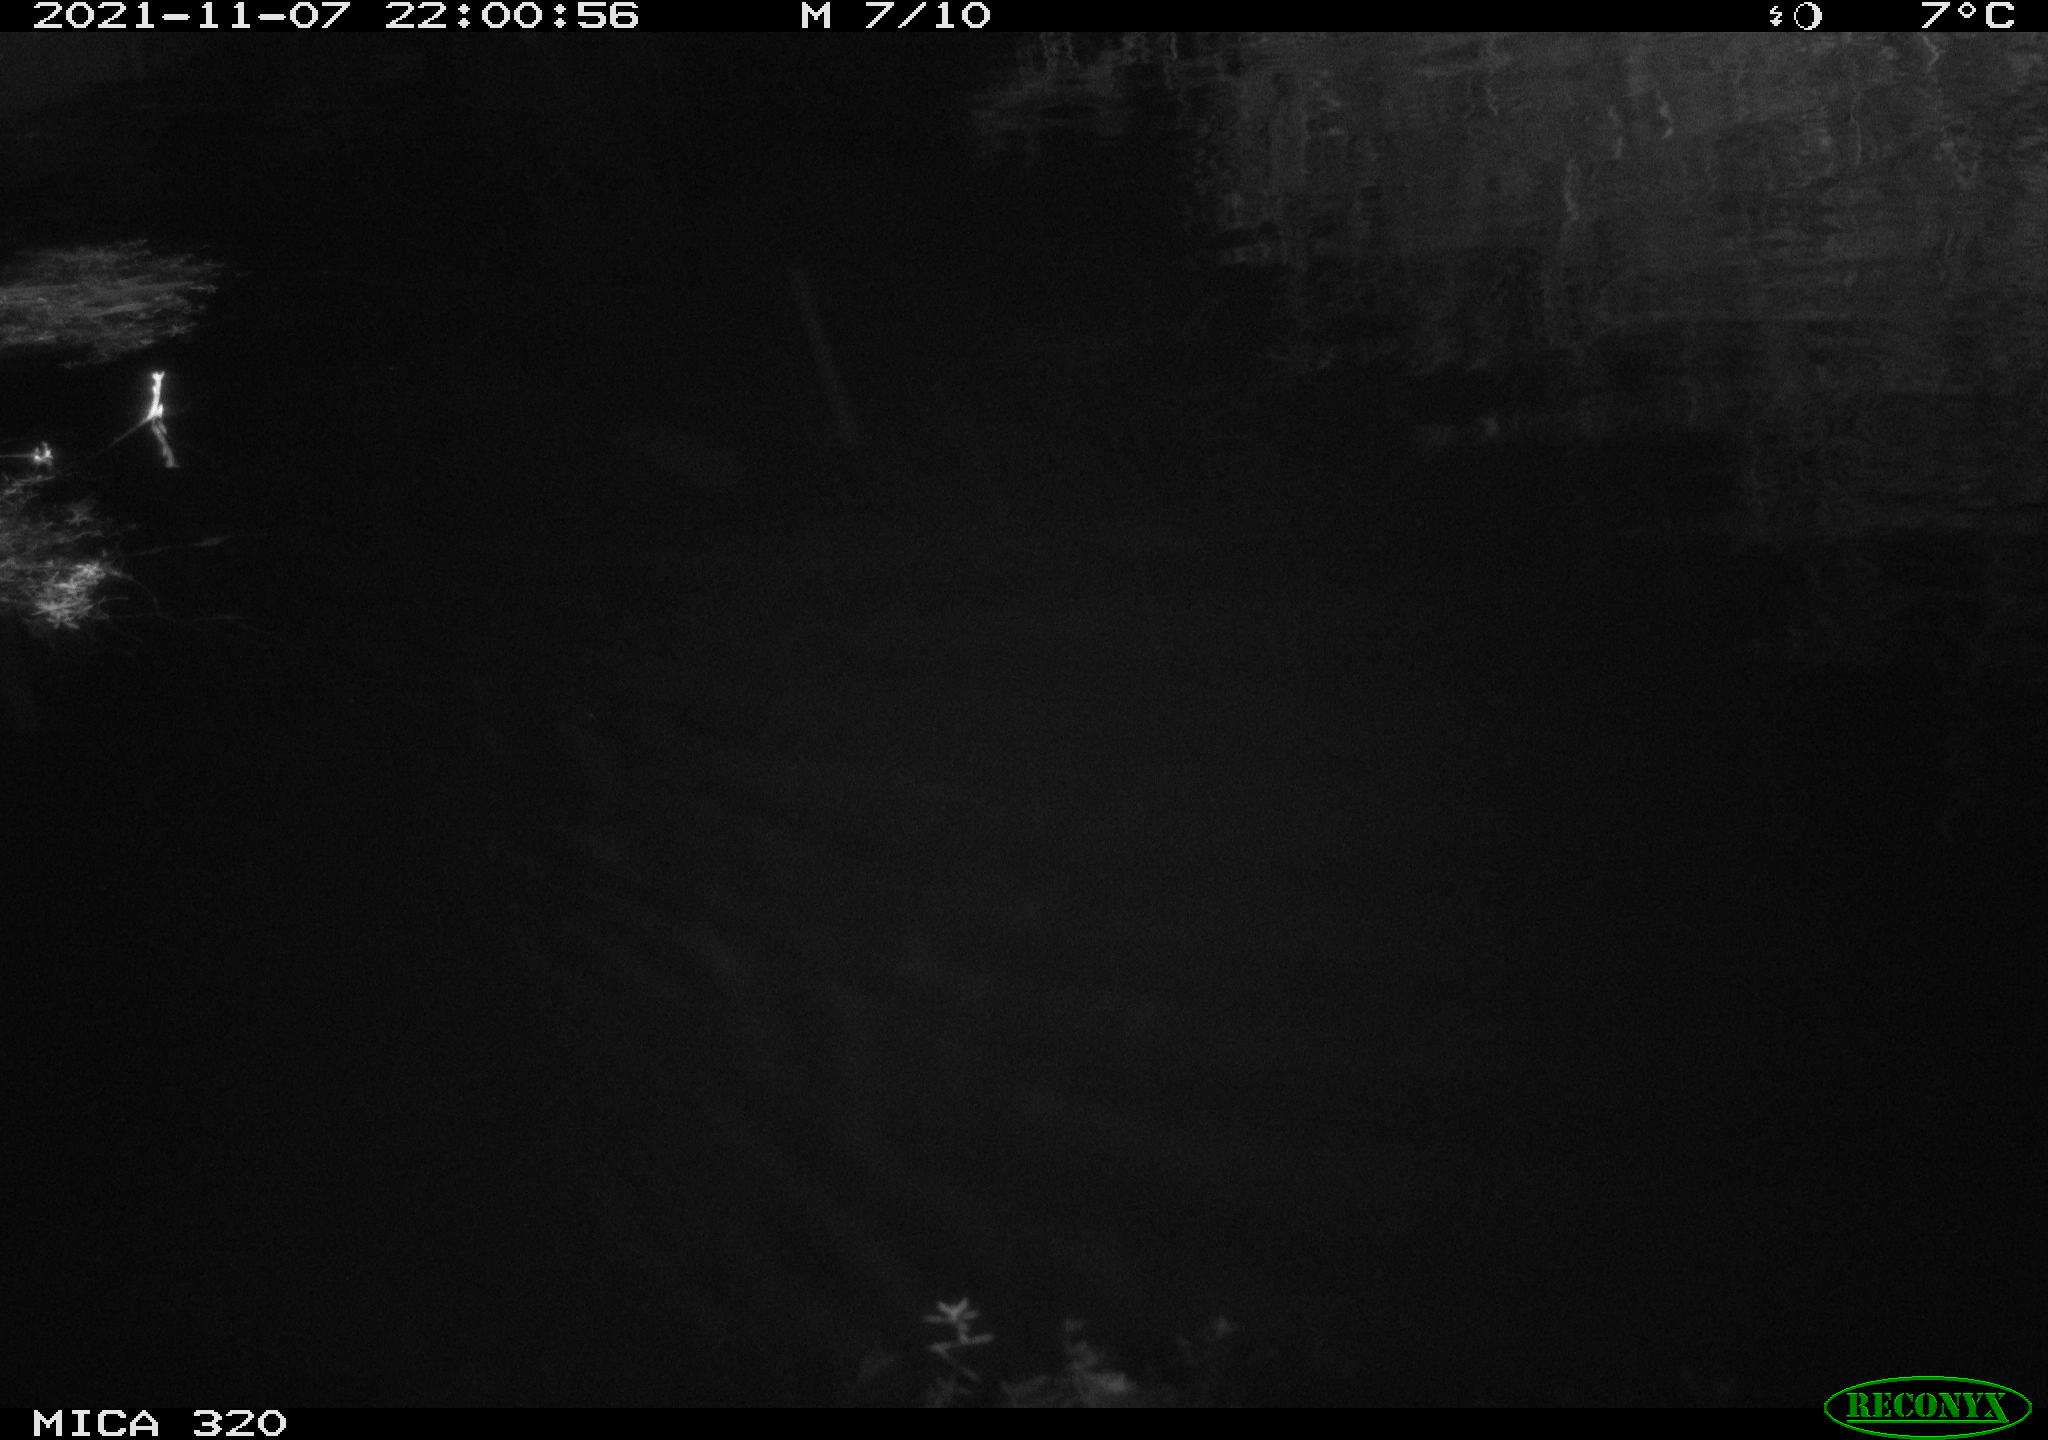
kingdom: Animalia
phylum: Chordata
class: Mammalia
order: Rodentia
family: Cricetidae
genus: Ondatra
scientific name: Ondatra zibethicus
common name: Muskrat
